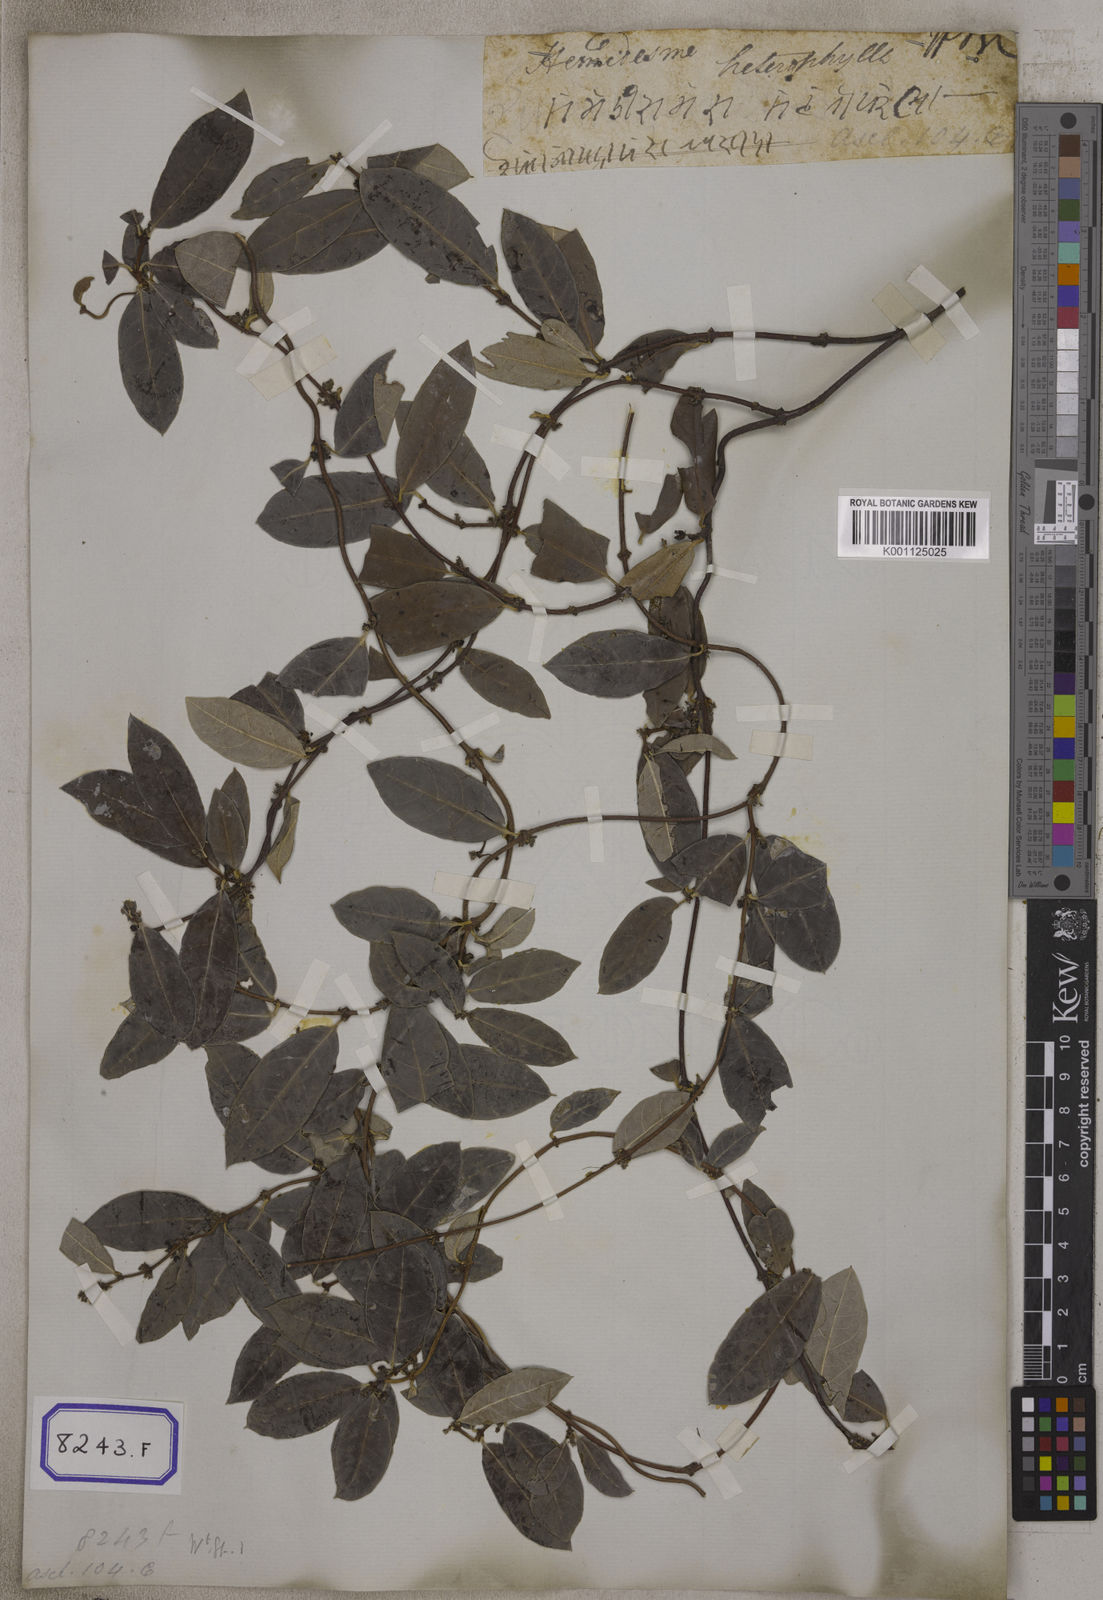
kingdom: Plantae
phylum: Tracheophyta
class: Magnoliopsida
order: Gentianales
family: Apocynaceae
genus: Hemidesmus
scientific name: Hemidesmus indicus
